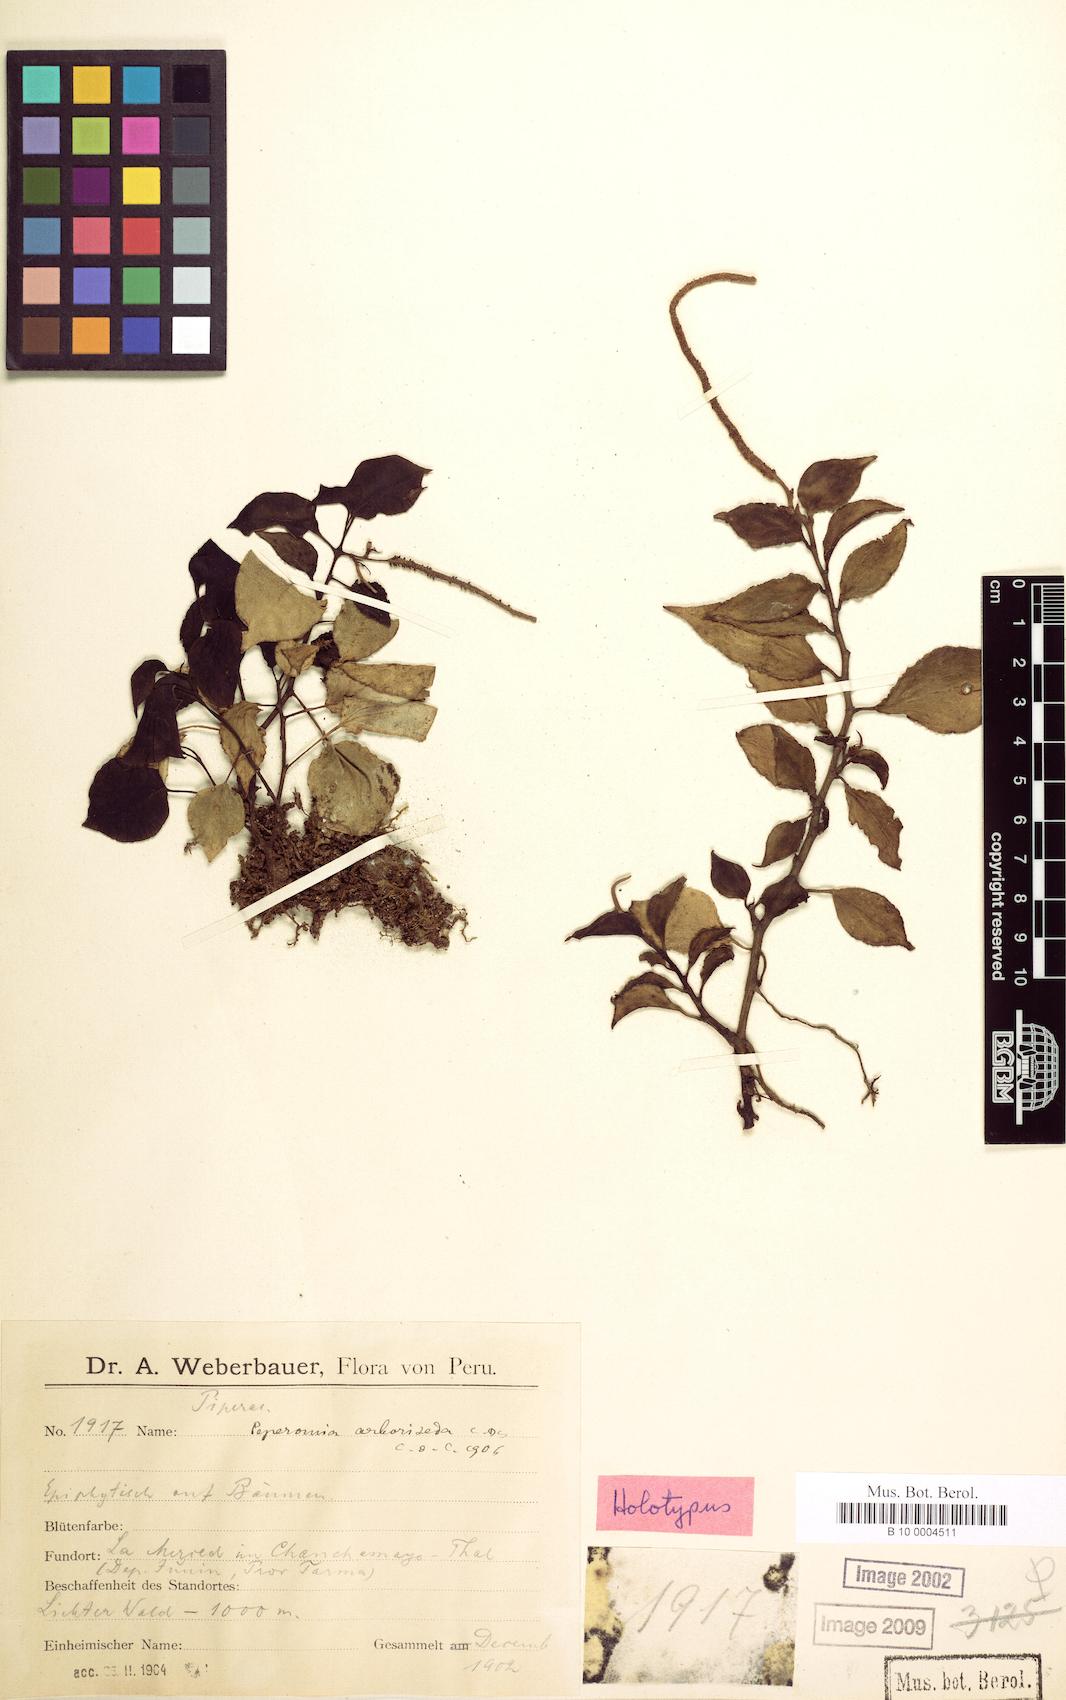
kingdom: Plantae
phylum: Tracheophyta
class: Magnoliopsida
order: Piperales
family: Piperaceae
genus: Peperomia
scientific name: Peperomia arboriseda
